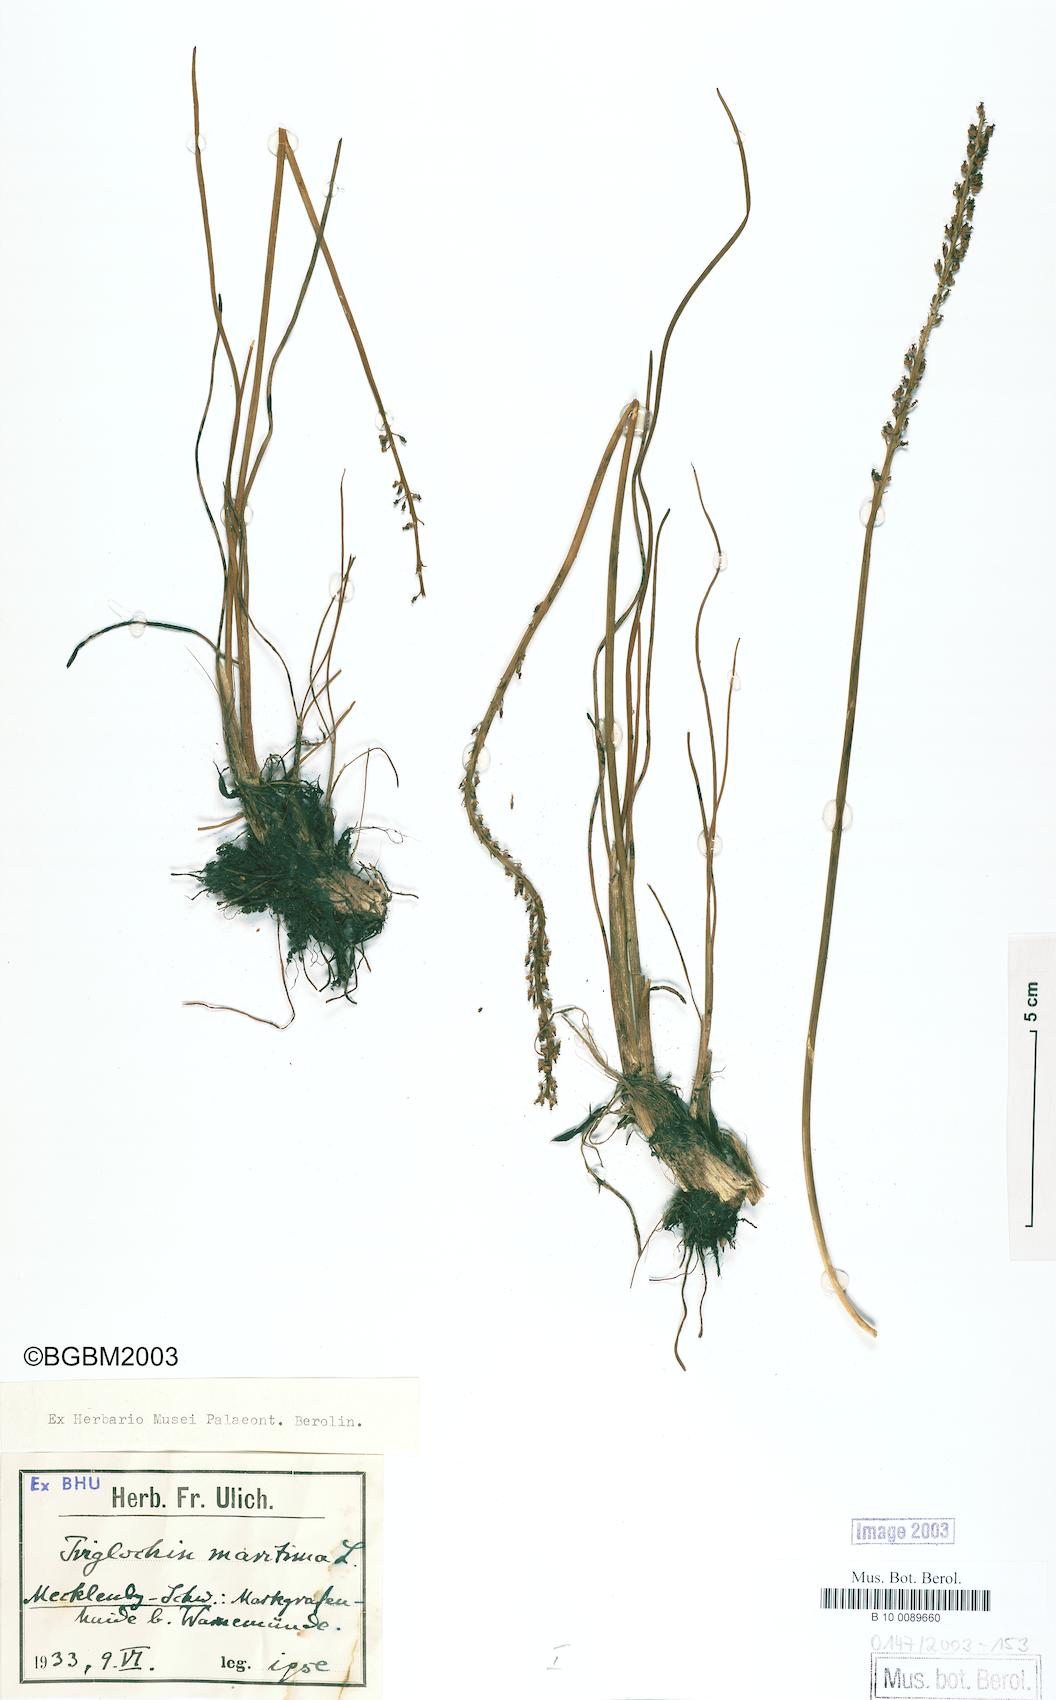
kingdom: Plantae
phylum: Tracheophyta
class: Liliopsida
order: Alismatales
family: Juncaginaceae
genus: Triglochin
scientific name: Triglochin maritima
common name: Sea arrowgrass
